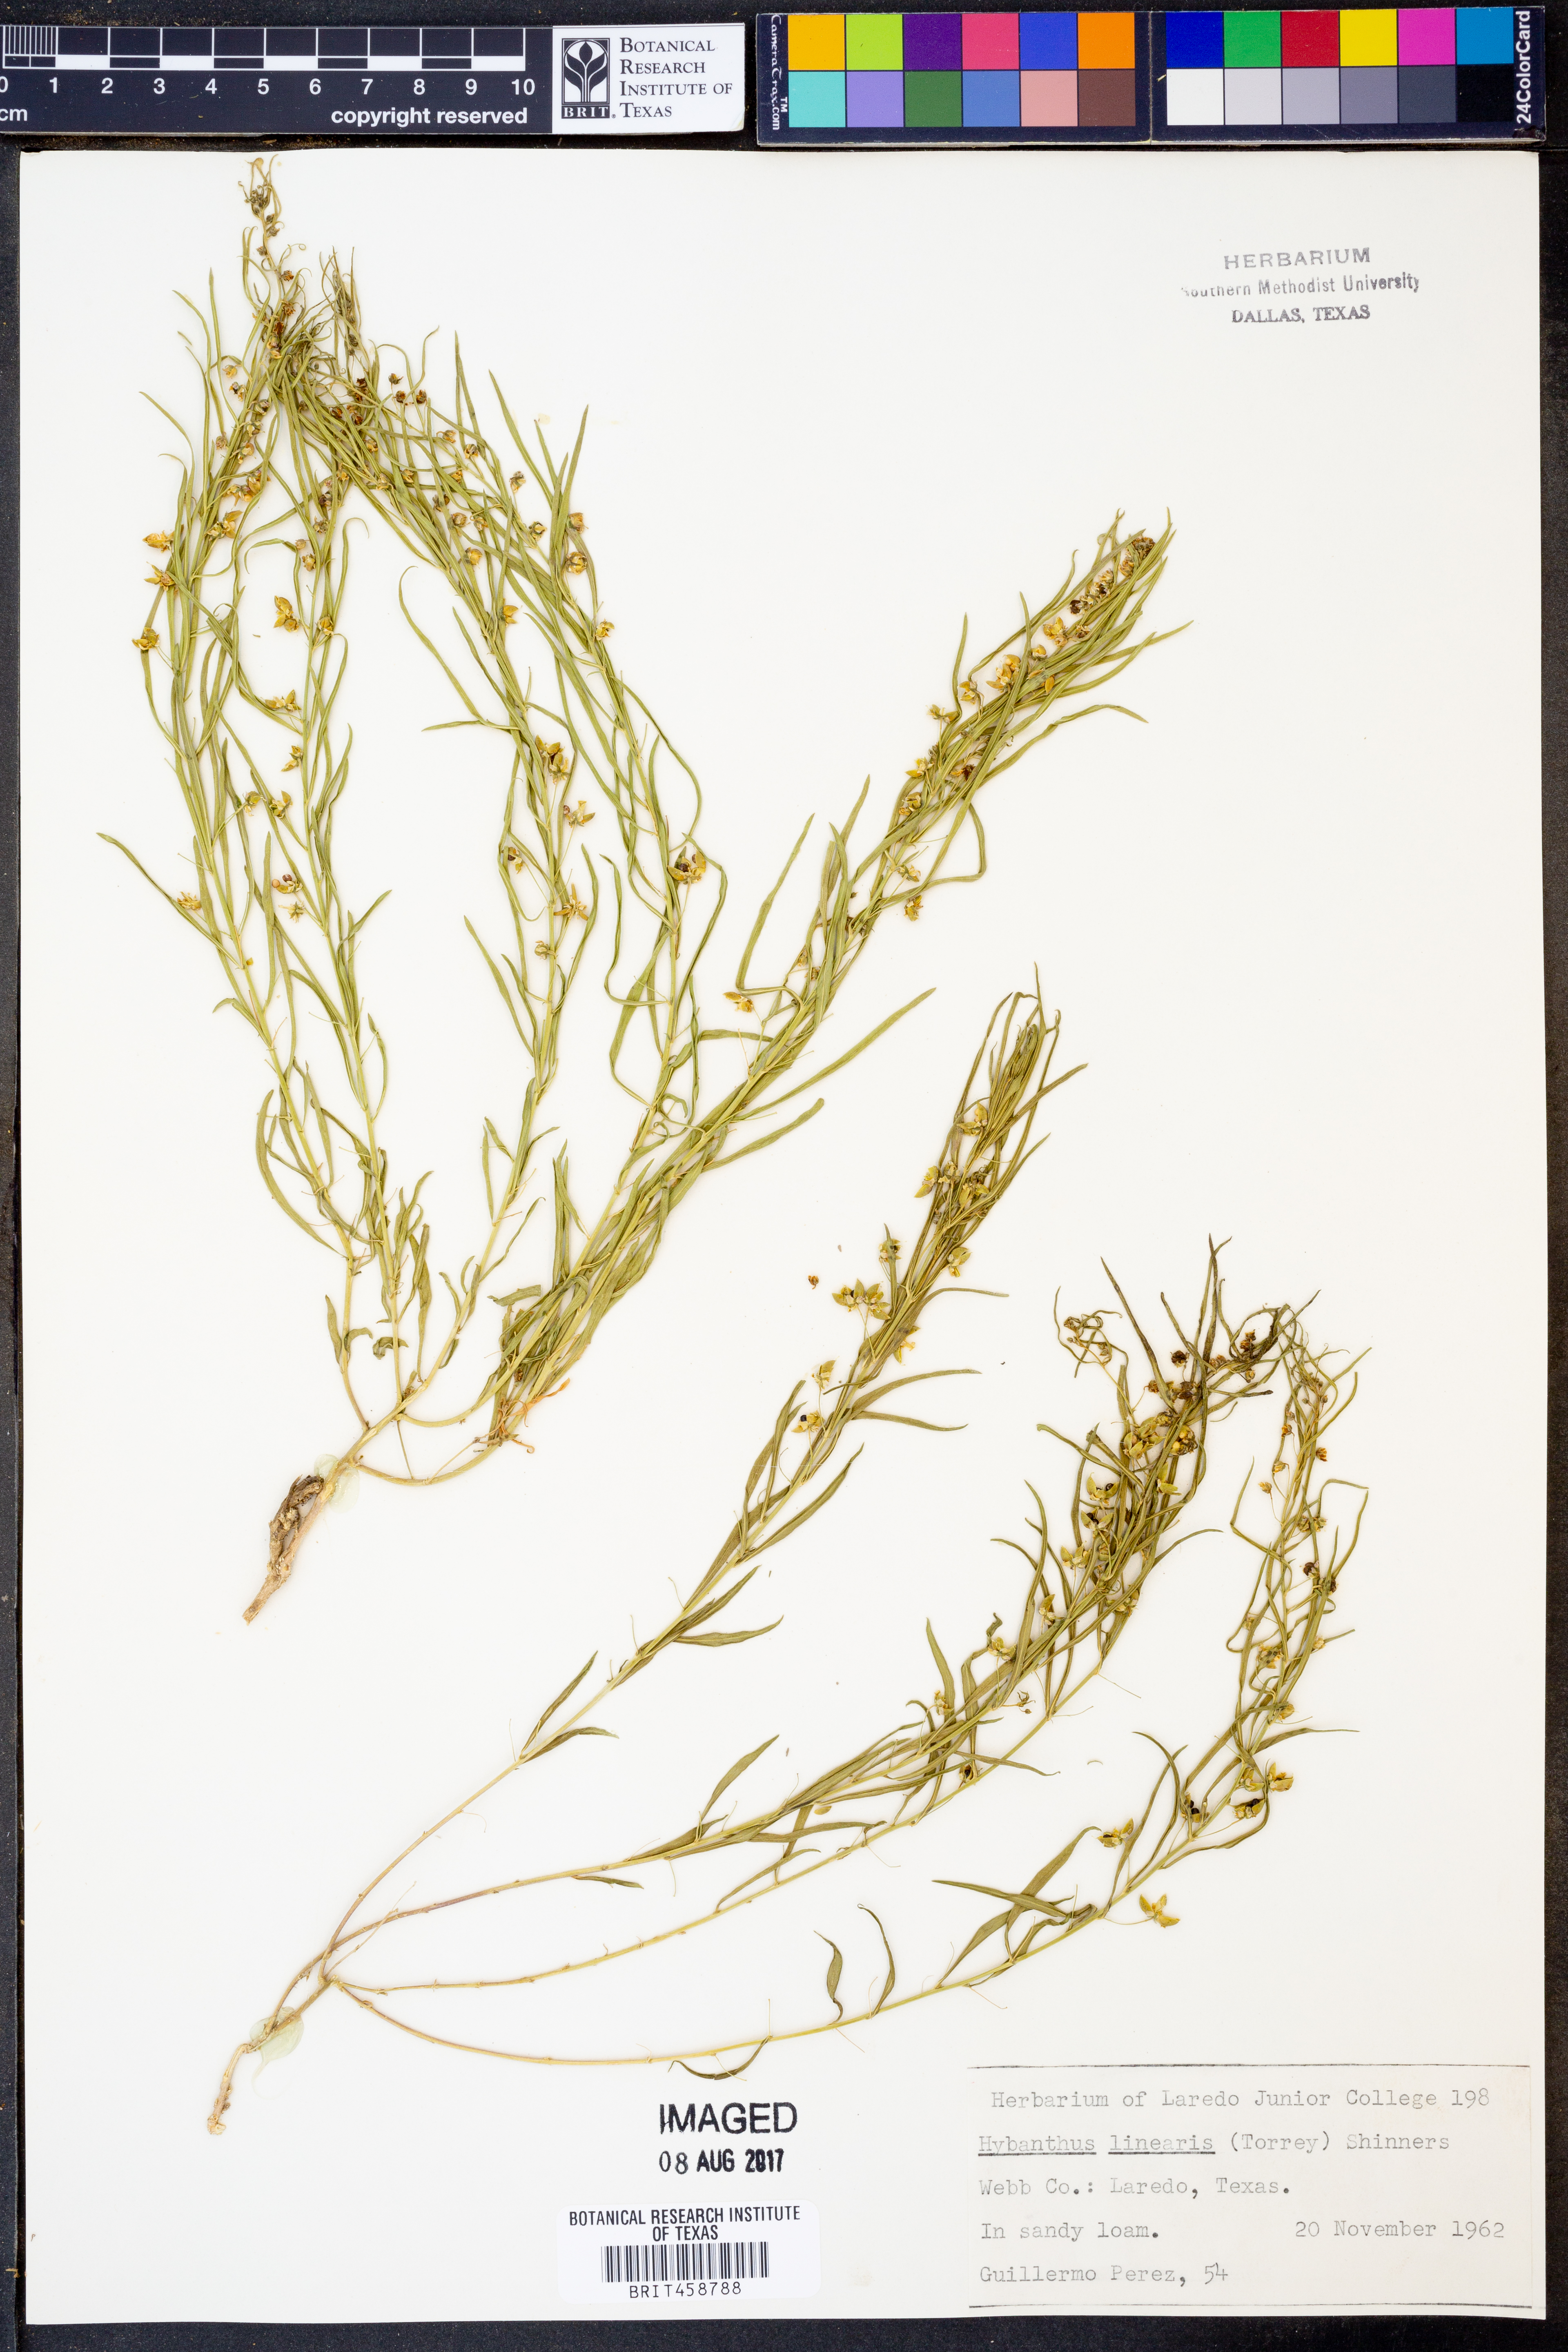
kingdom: Plantae
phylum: Tracheophyta
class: Magnoliopsida
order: Malpighiales
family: Violaceae
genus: Pombalia
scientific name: Pombalia verticillata
